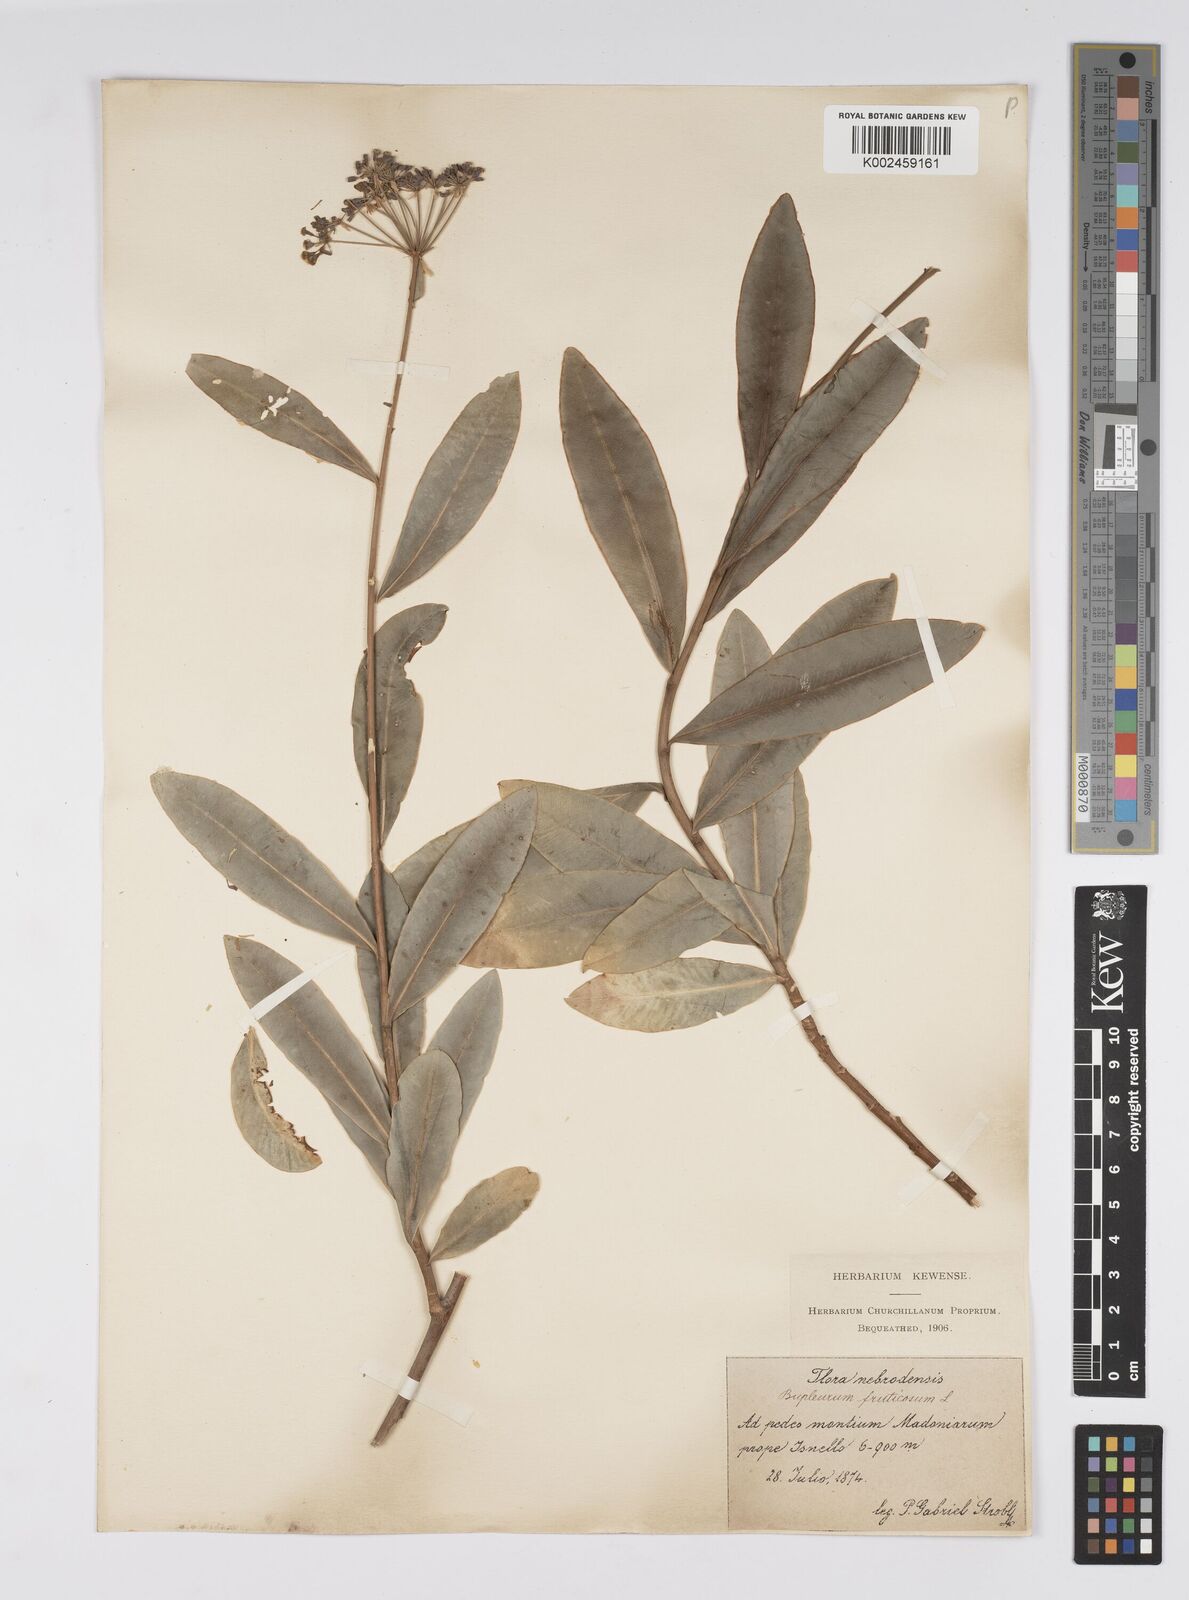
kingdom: Plantae
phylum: Tracheophyta
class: Magnoliopsida
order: Apiales
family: Apiaceae
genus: Bupleurum
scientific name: Bupleurum fruticosum
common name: Shrubby hare's-ear
